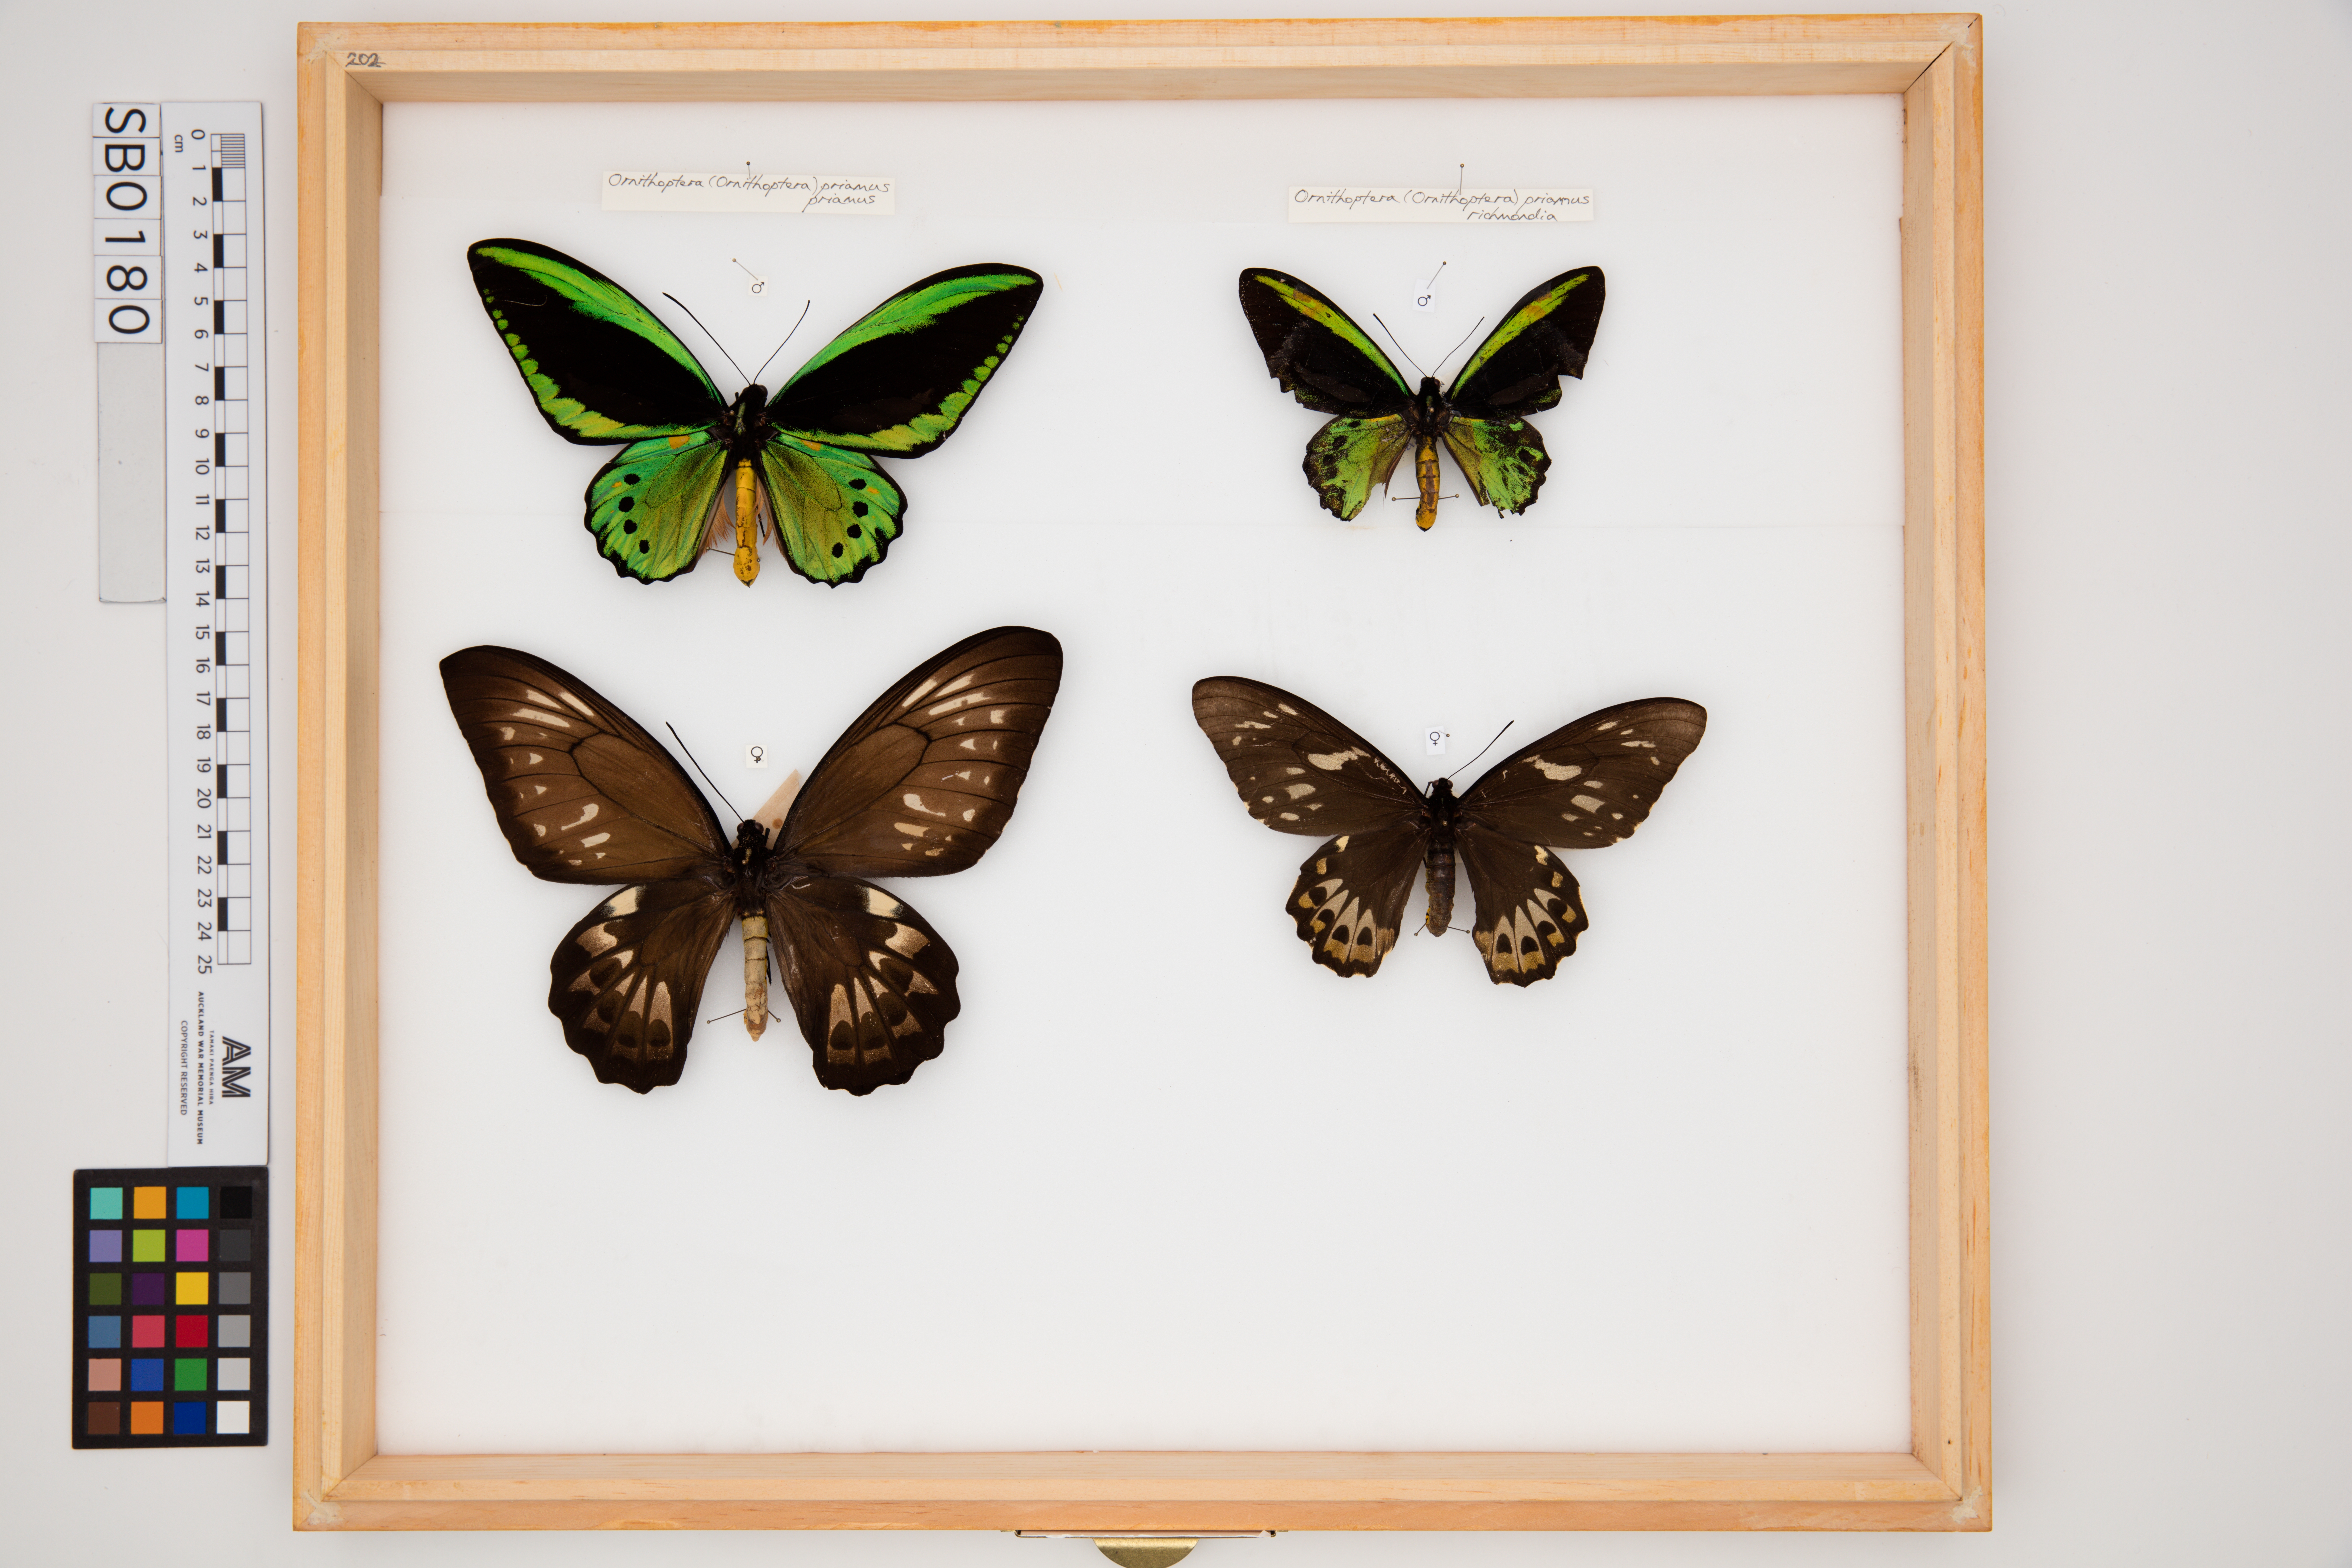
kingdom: Animalia
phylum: Arthropoda
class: Insecta
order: Lepidoptera
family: Papilionidae
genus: Ornithoptera
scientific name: Ornithoptera richmondia
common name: Richmond birdwing
